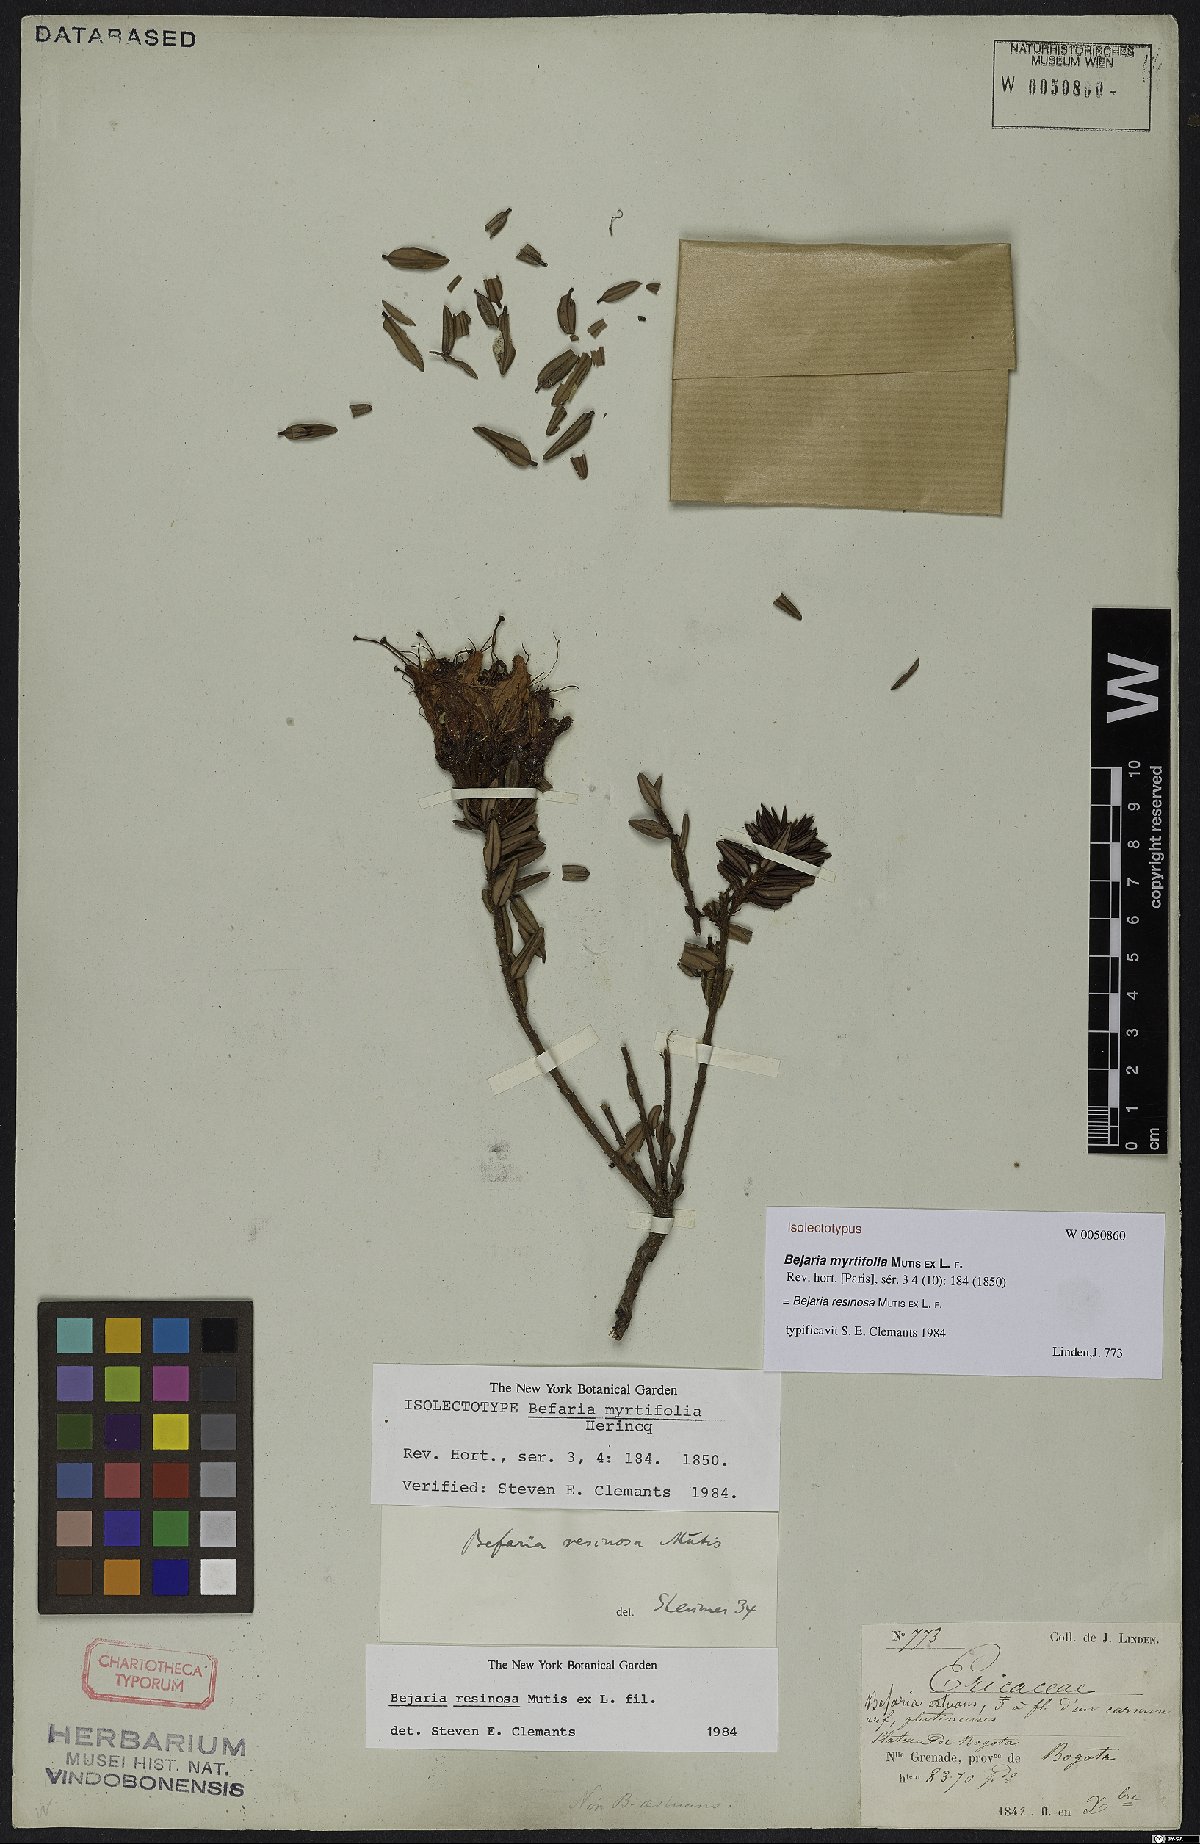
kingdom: Plantae
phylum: Tracheophyta
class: Magnoliopsida
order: Ericales
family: Ericaceae
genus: Bejaria
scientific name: Bejaria resinosa
